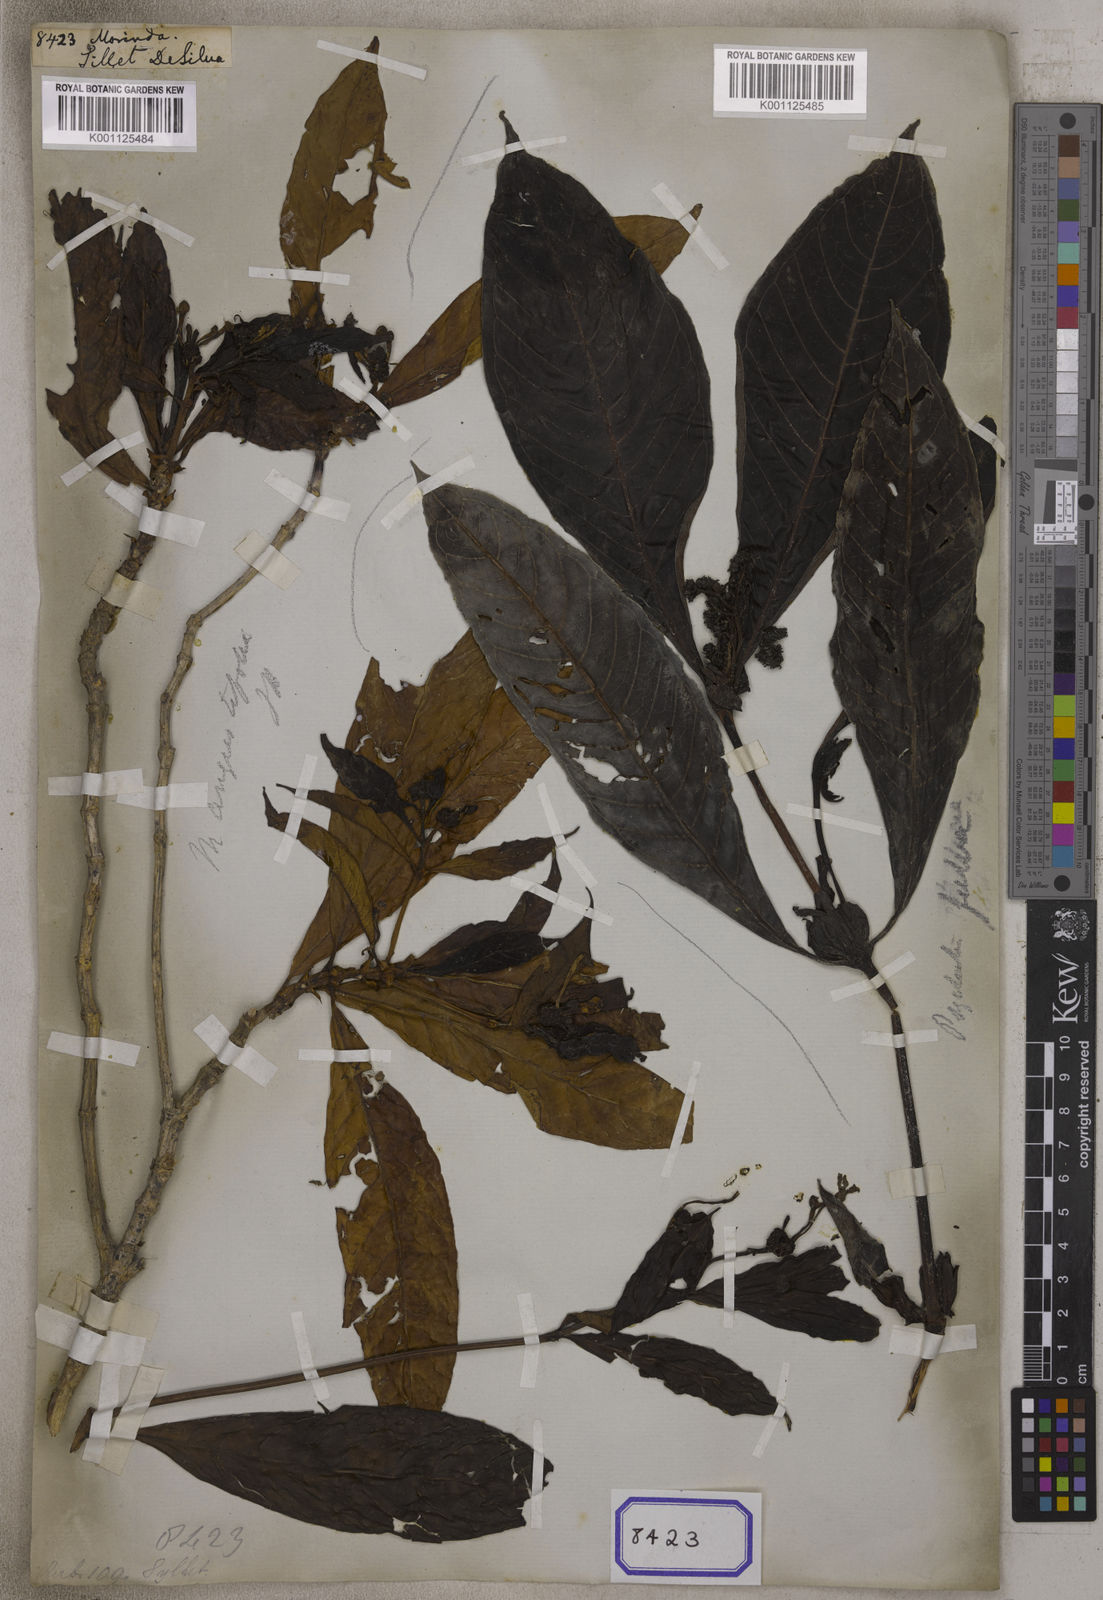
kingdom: Plantae
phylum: Tracheophyta
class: Magnoliopsida
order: Gentianales
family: Rubiaceae
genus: Morinda
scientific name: Morinda
